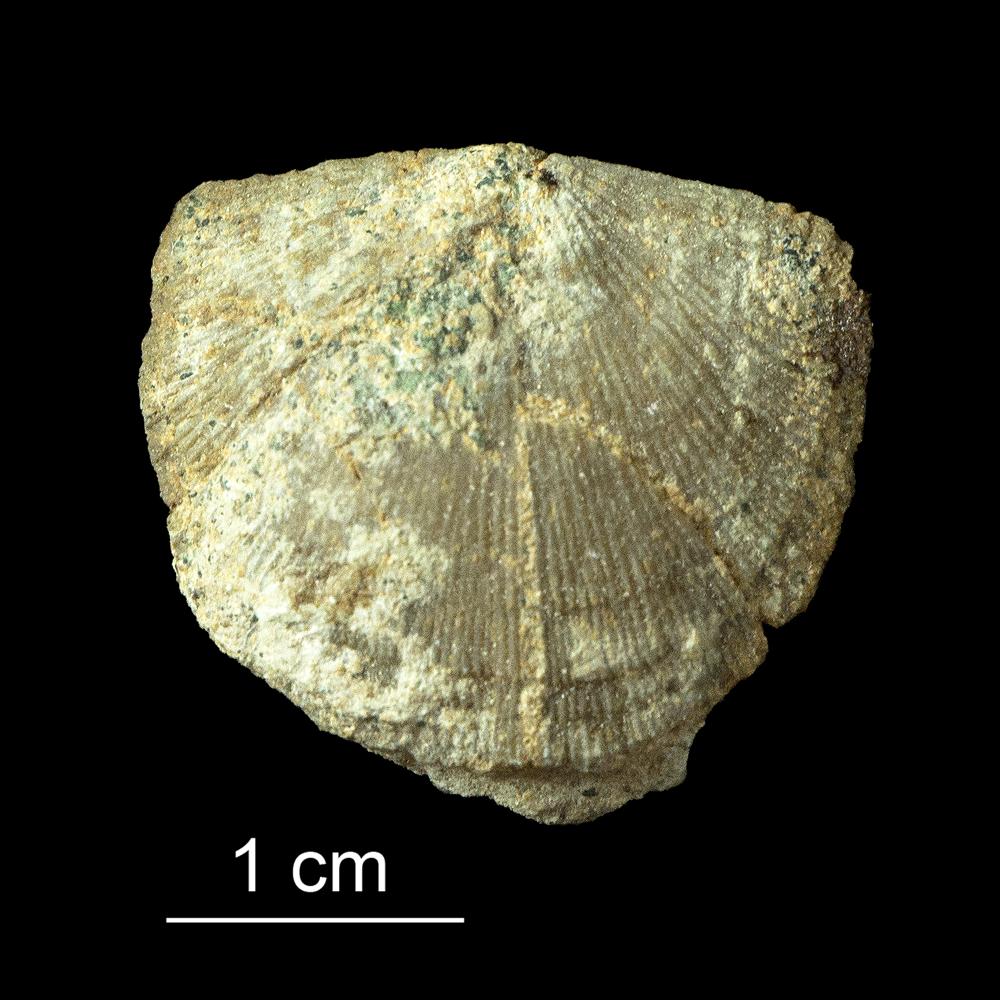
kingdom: Animalia
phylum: Brachiopoda
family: Gonambonitidae
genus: Gonambonites
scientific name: Gonambonites plana
